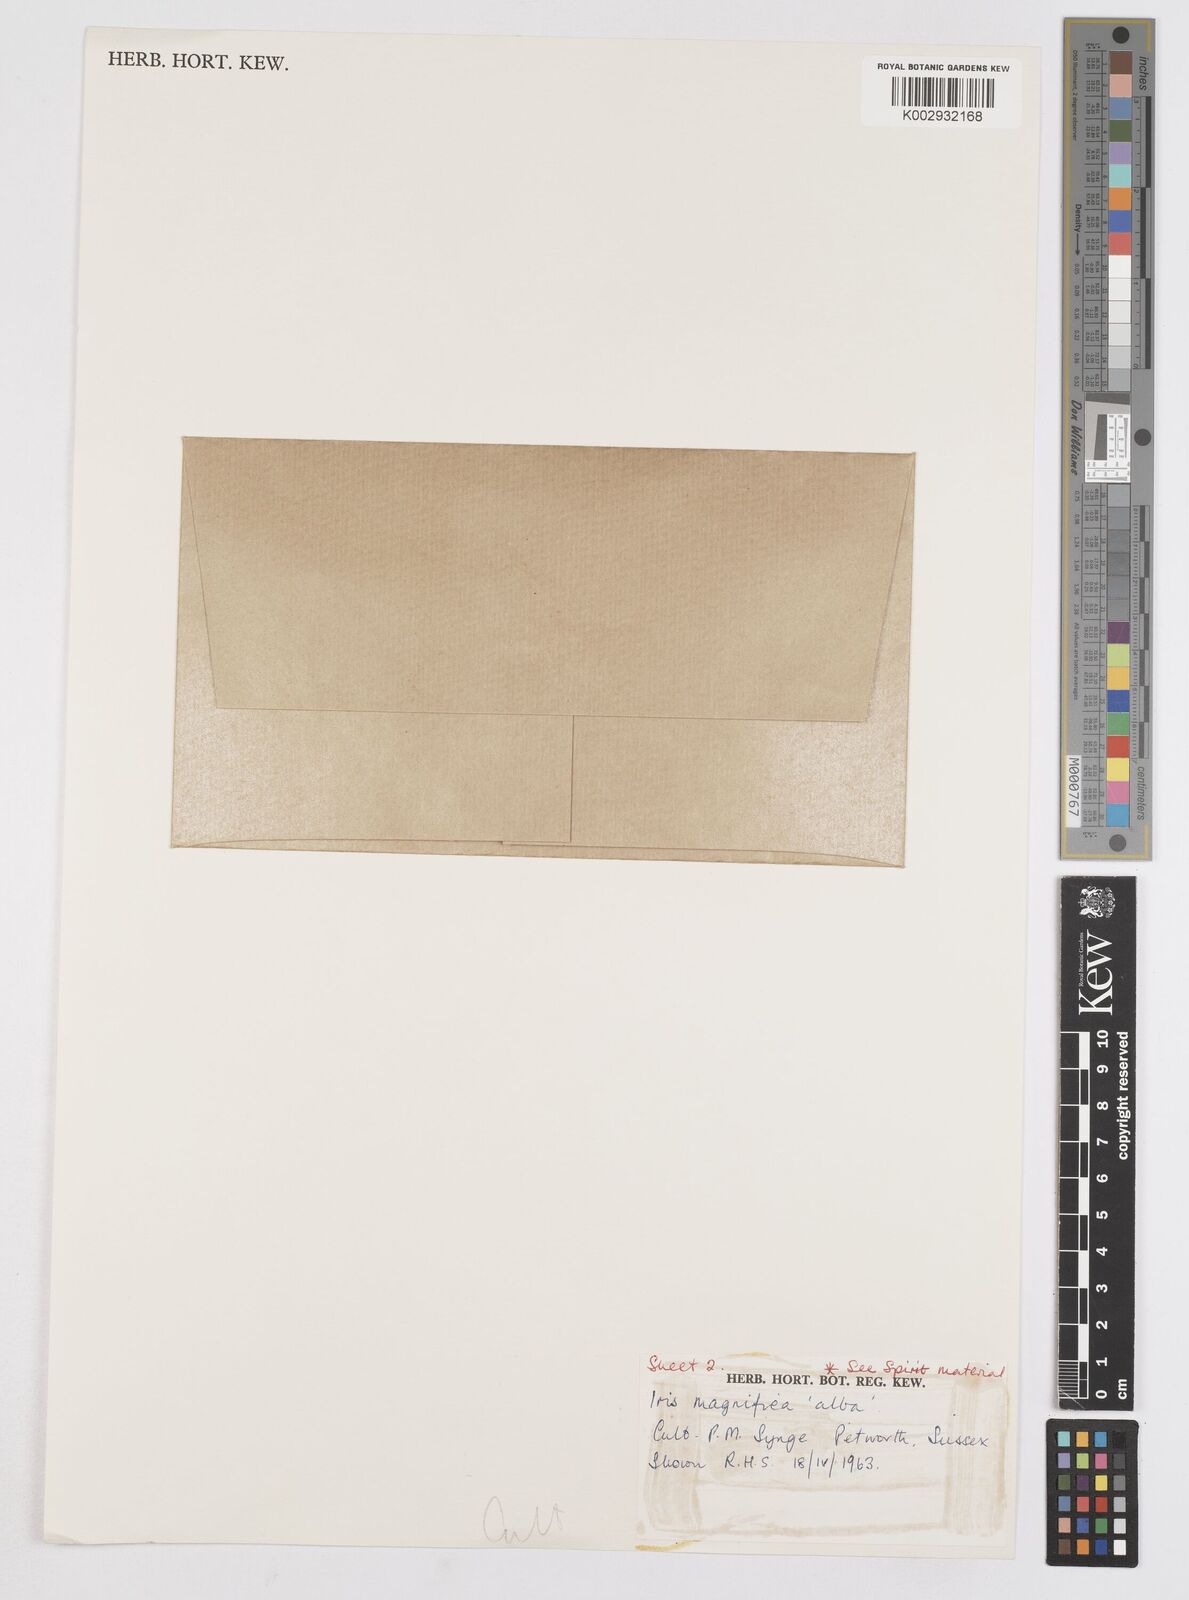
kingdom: Plantae
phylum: Tracheophyta
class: Liliopsida
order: Asparagales
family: Iridaceae
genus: Iris
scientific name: Iris magnifica
